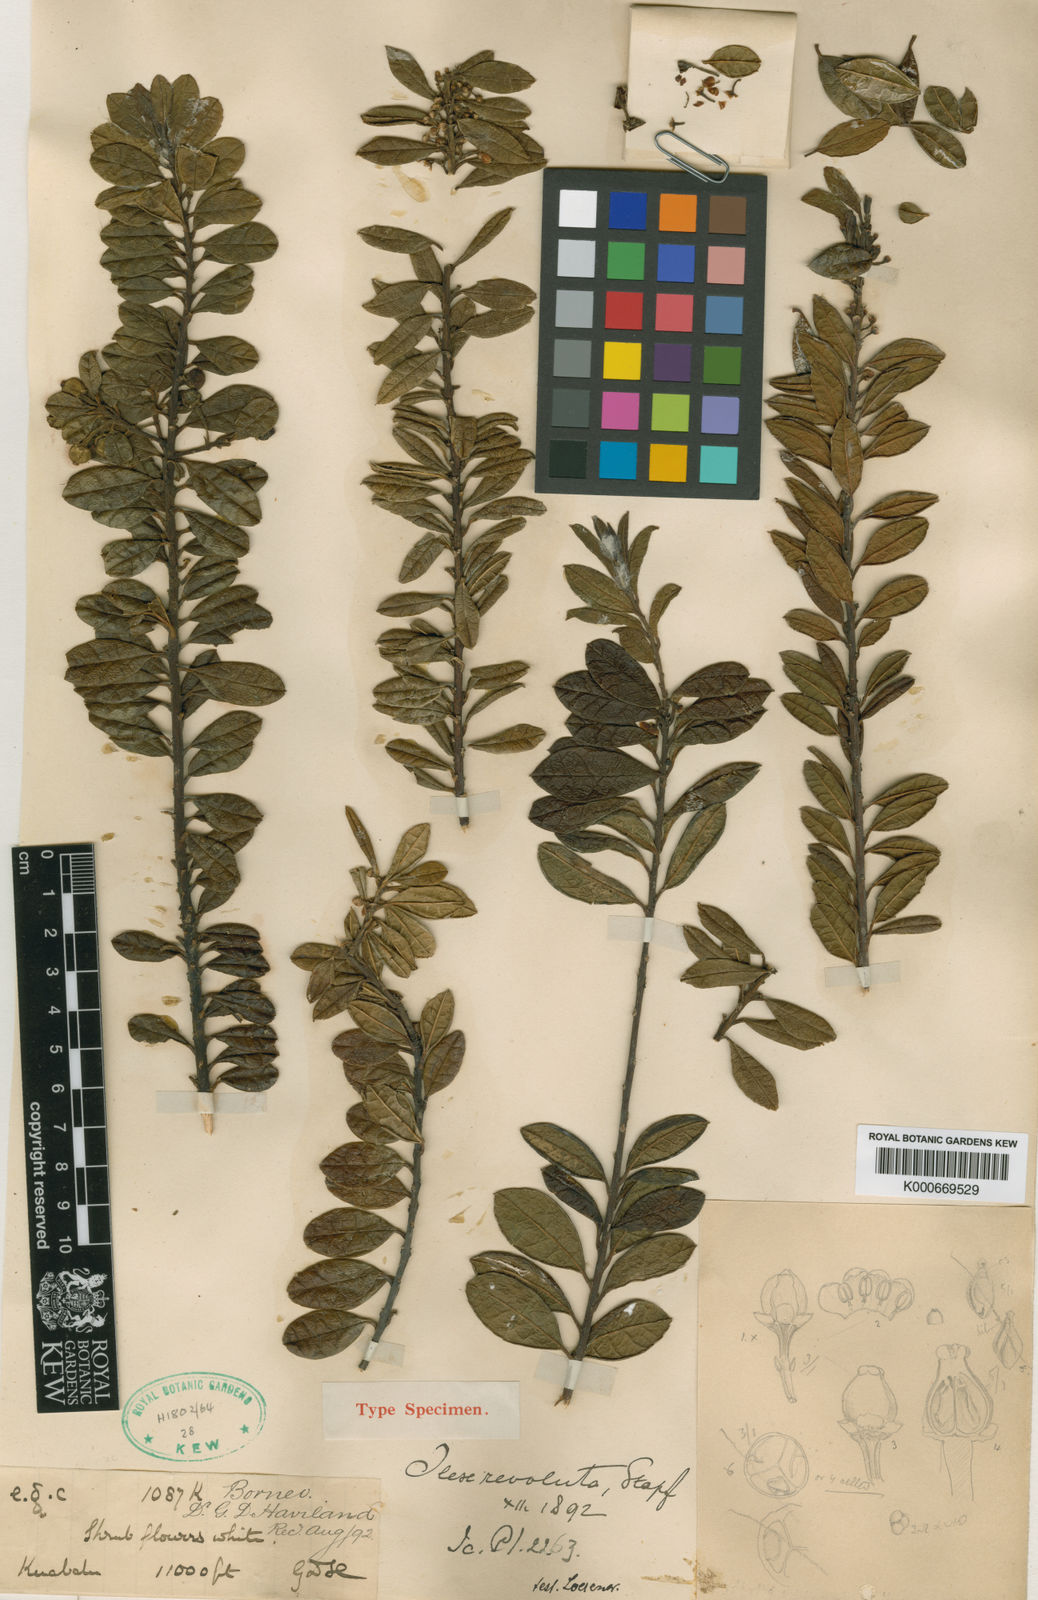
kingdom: Plantae
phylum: Tracheophyta
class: Magnoliopsida
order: Aquifoliales
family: Aquifoliaceae
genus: Ilex
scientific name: Ilex revoluta
